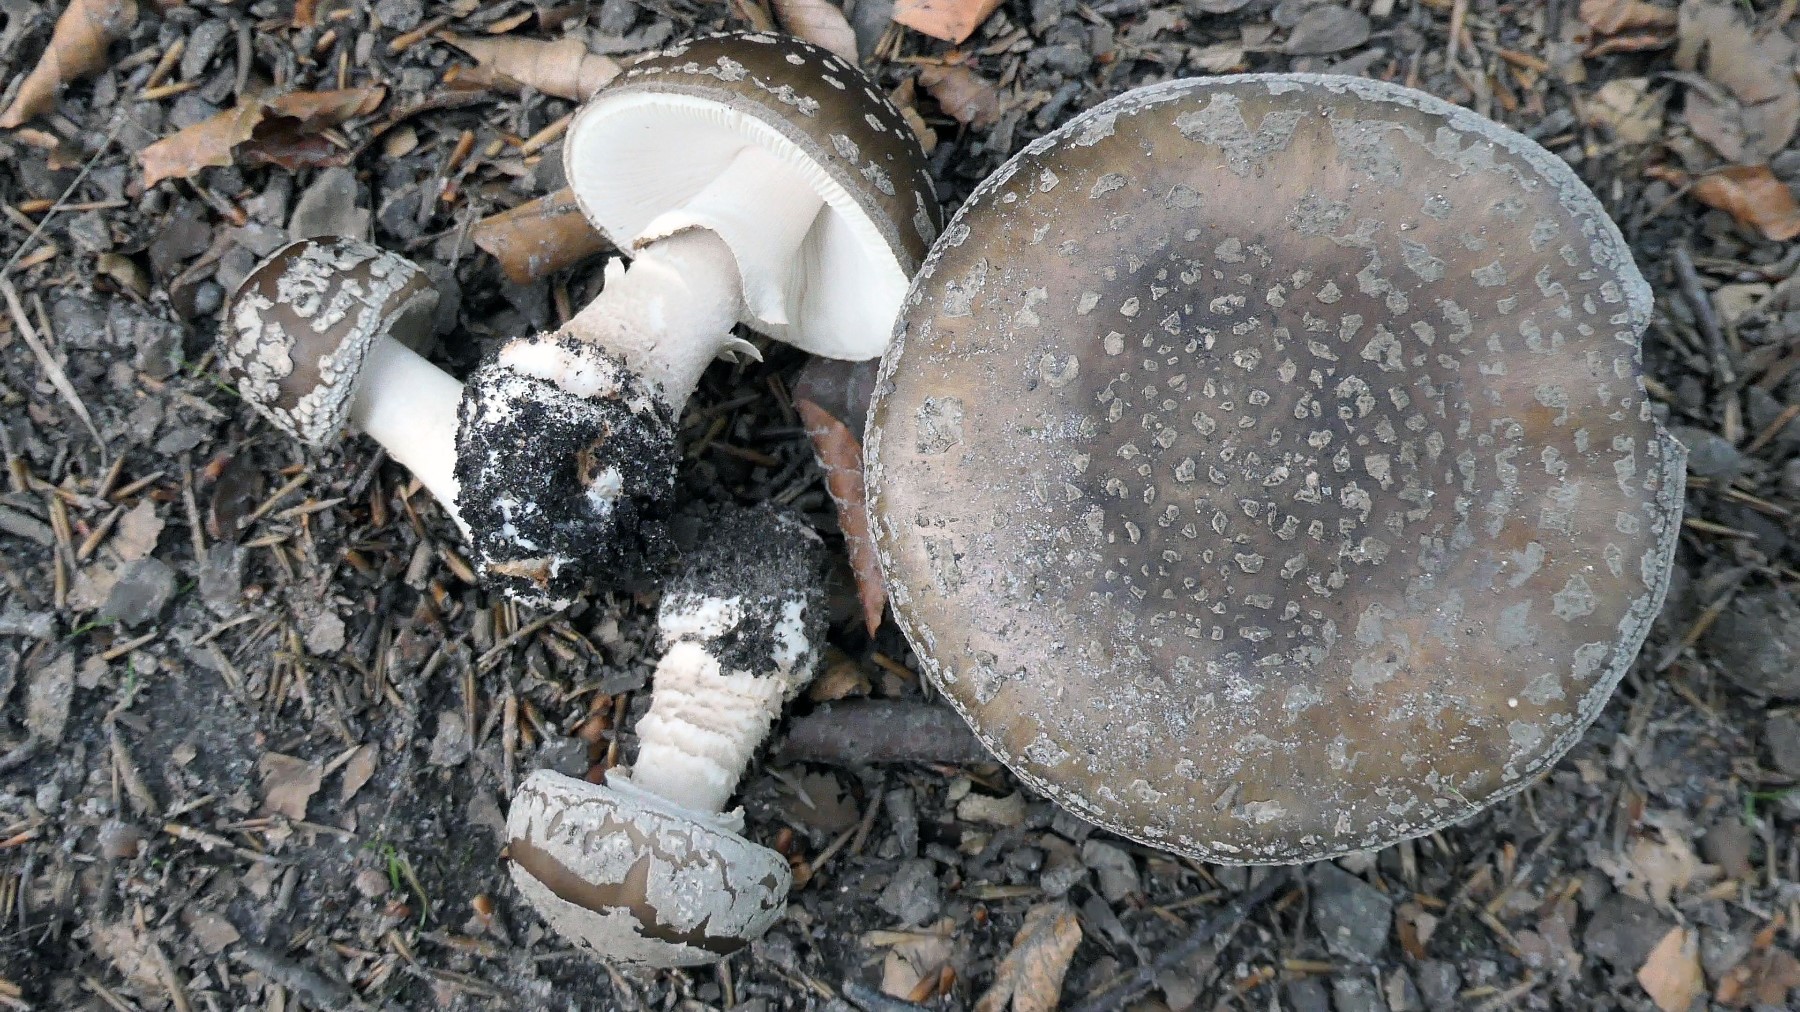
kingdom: Fungi
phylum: Basidiomycota
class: Agaricomycetes
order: Agaricales
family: Amanitaceae
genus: Amanita
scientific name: Amanita
